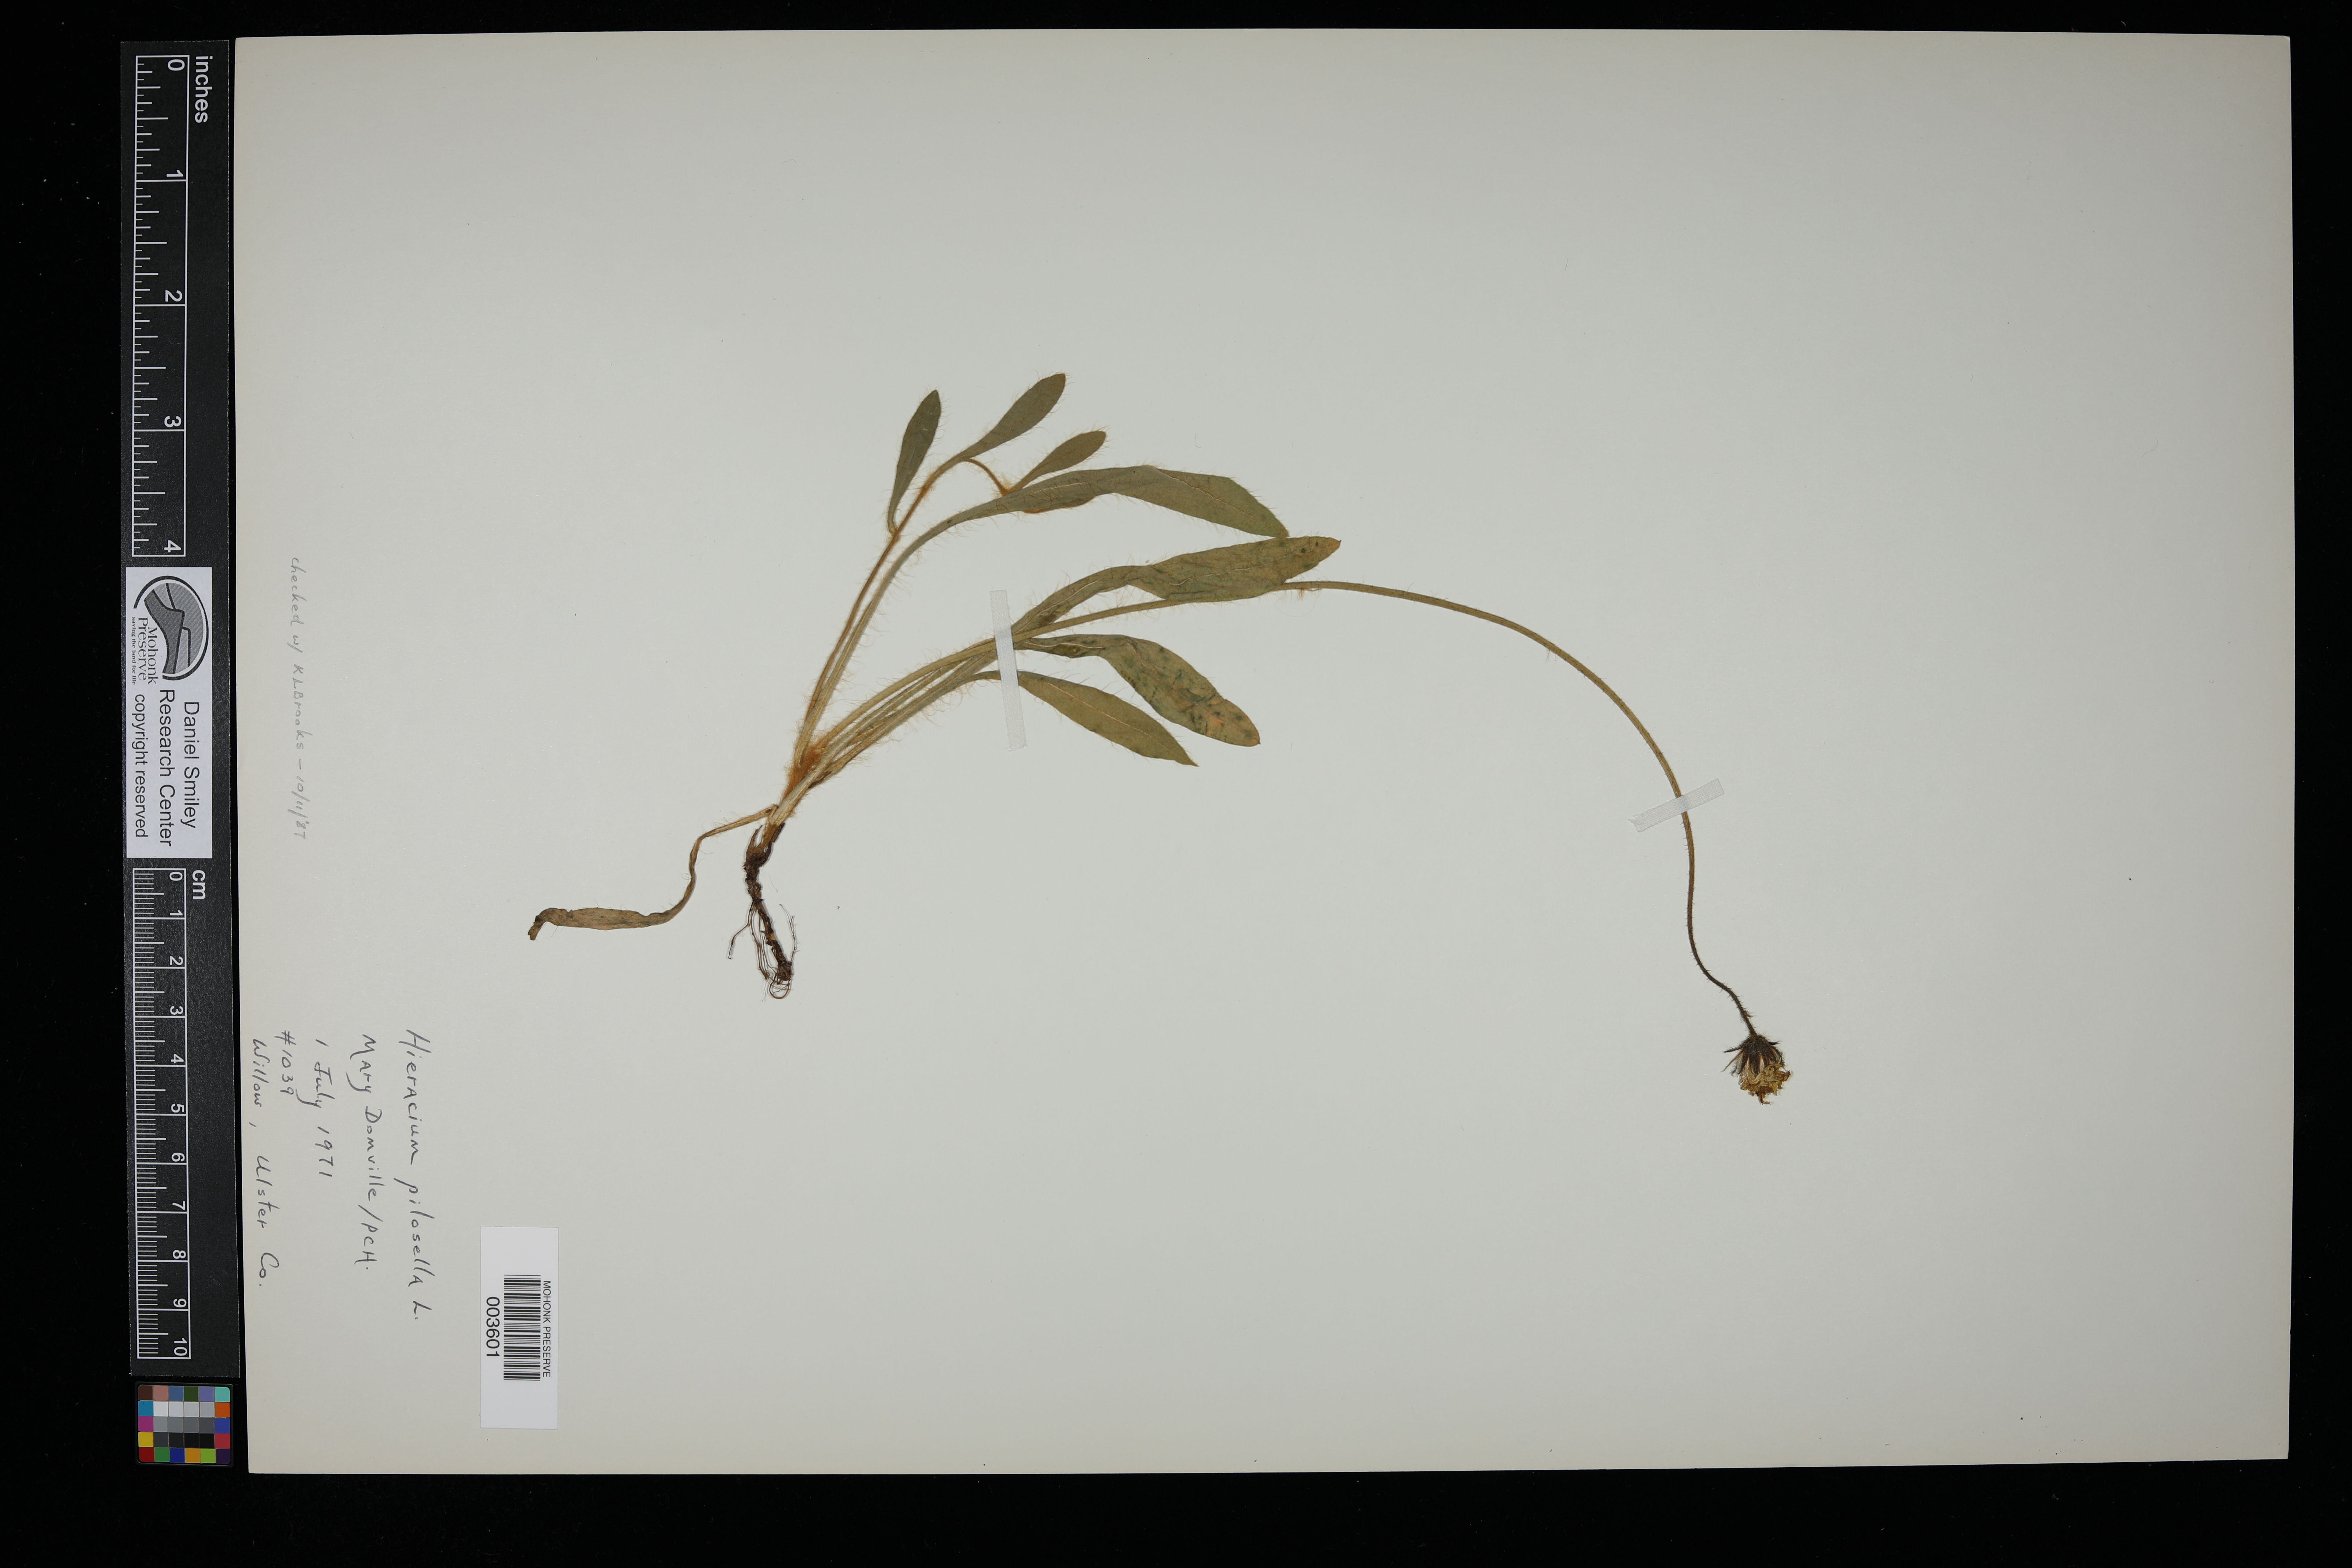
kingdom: Plantae
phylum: Tracheophyta
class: Magnoliopsida
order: Asterales
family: Asteraceae
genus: Pilosella
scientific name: Pilosella officinarum
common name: Mouse-ear hawkweed
